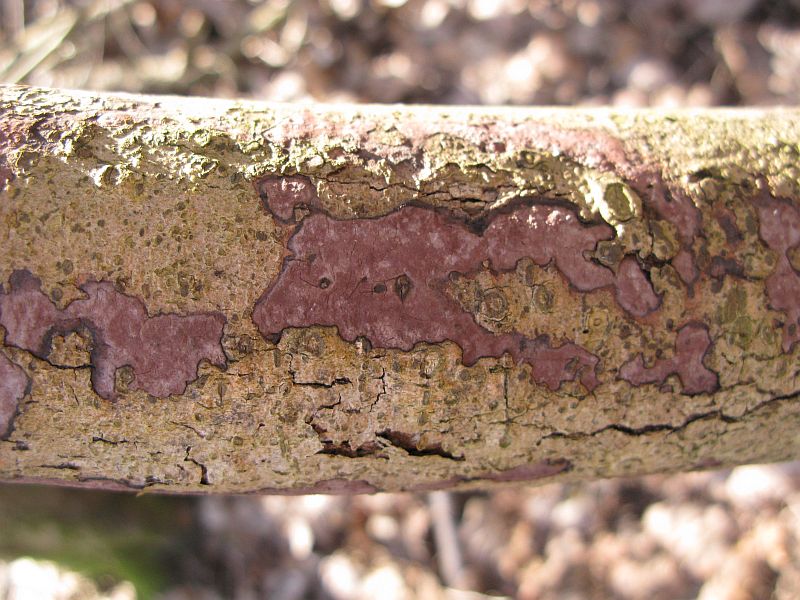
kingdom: Fungi
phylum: Ascomycota
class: Sordariomycetes
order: Xylariales
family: Hypoxylaceae
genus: Hypoxylon
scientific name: Hypoxylon petriniae
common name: nedsænket kulbær
